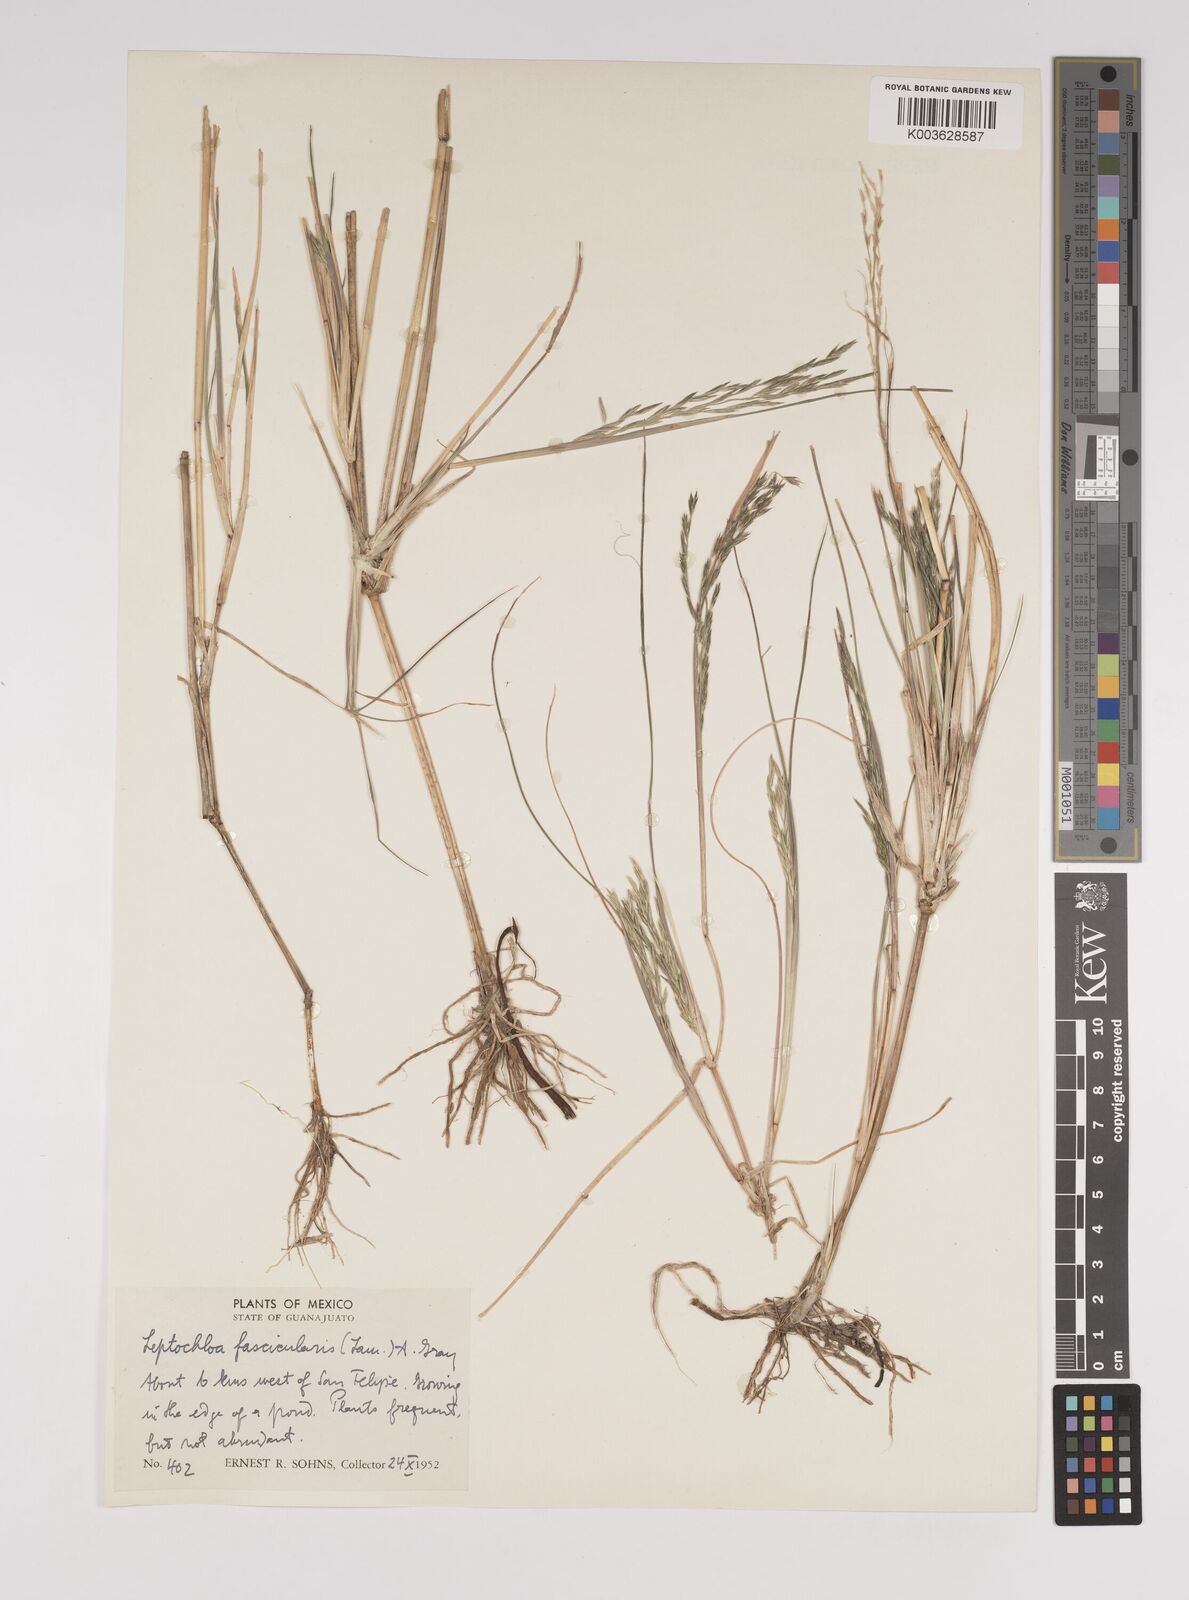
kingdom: Plantae
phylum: Tracheophyta
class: Liliopsida
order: Poales
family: Poaceae
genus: Diplachne
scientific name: Diplachne fusca
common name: Brown beetle grass
